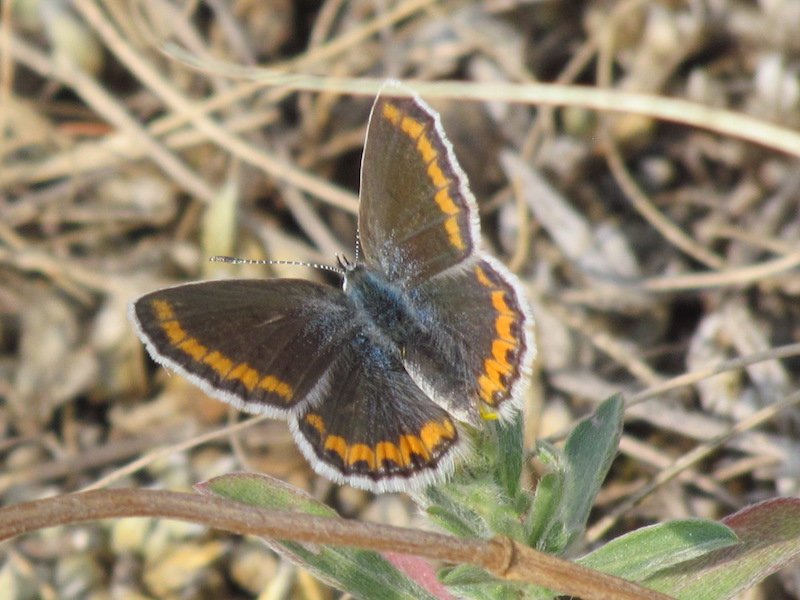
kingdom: Animalia
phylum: Arthropoda
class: Insecta
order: Lepidoptera
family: Lycaenidae
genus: Lycaeides
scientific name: Lycaeides melissa
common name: Melissa Blue
